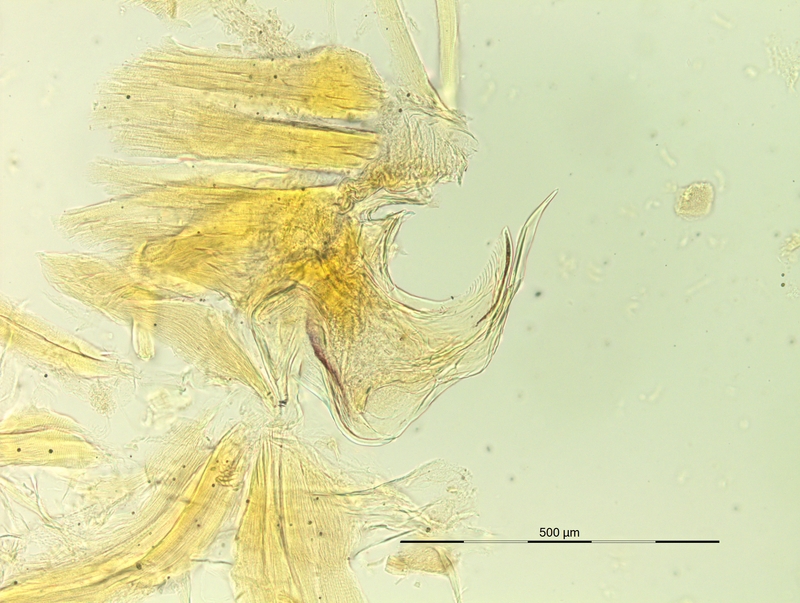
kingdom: Animalia
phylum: Arthropoda
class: Diplopoda
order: Chordeumatida
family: Craspedosomatidae
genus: Rhymogona
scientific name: Rhymogona wehrana
